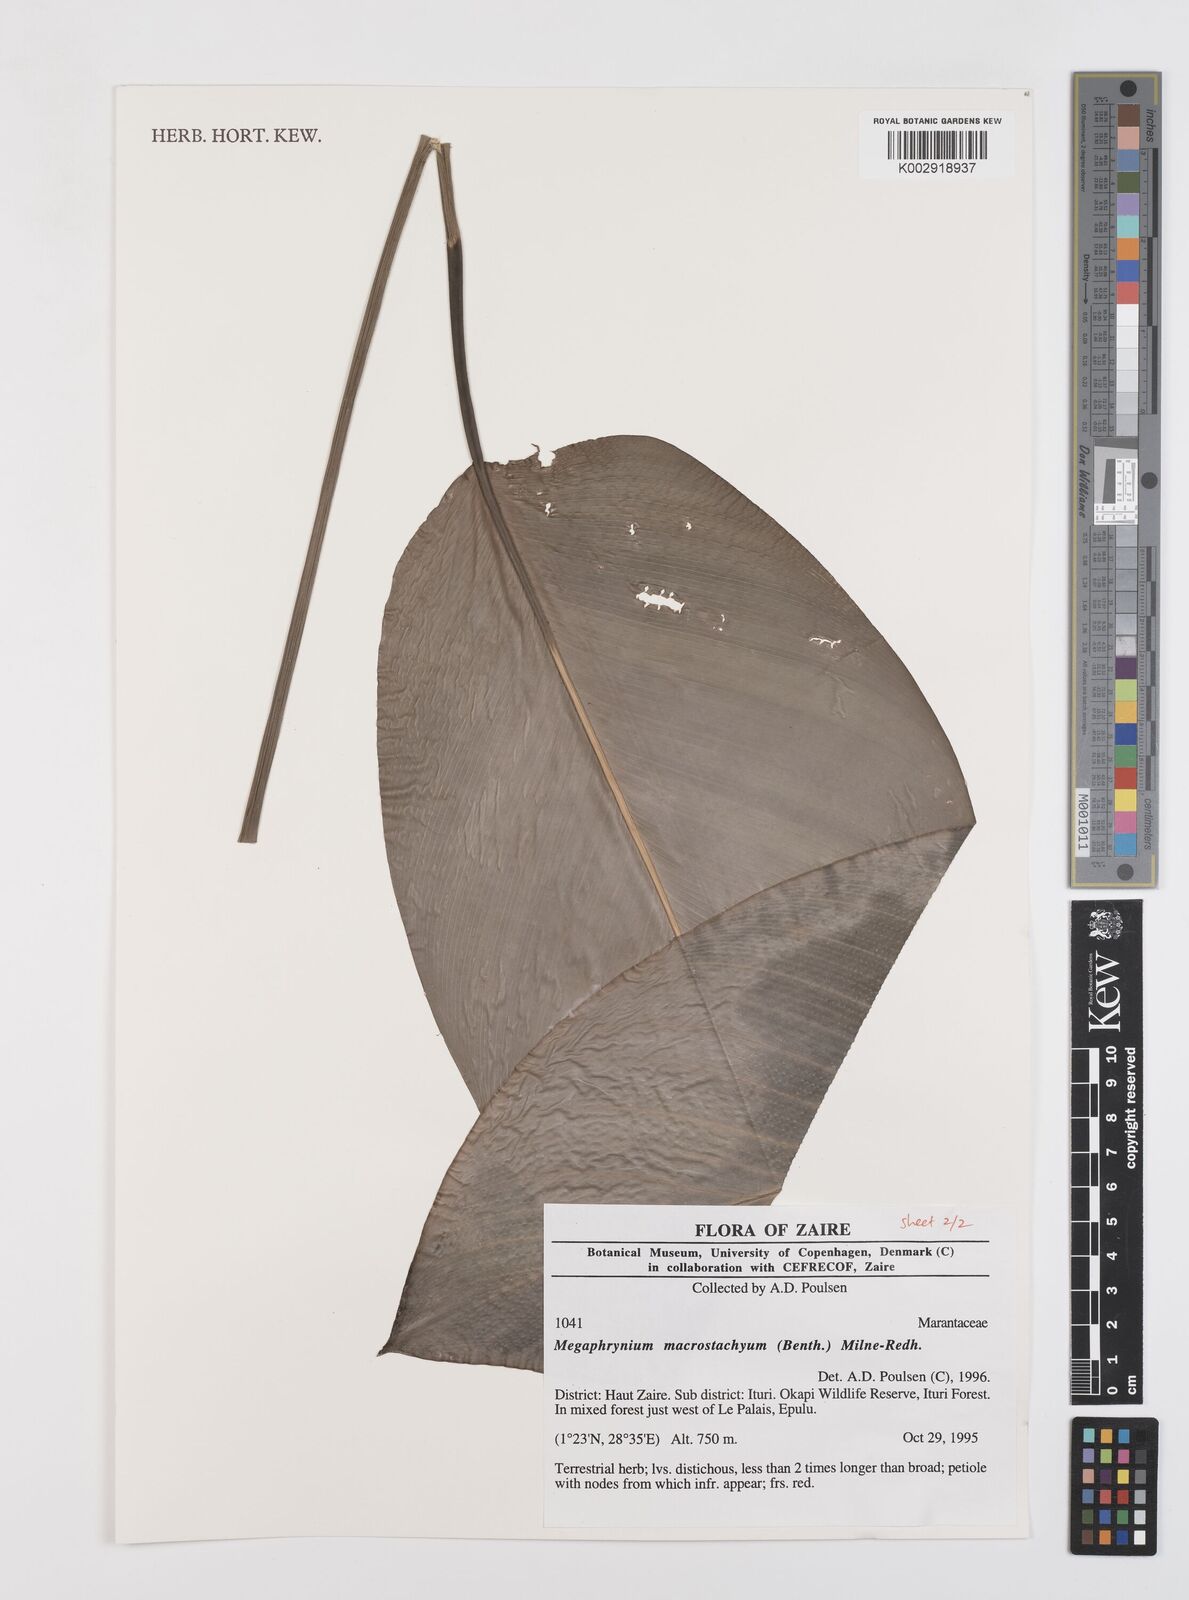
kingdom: Plantae
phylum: Tracheophyta
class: Liliopsida
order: Zingiberales
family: Marantaceae
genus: Megaphrynium
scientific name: Megaphrynium macrostachyum
